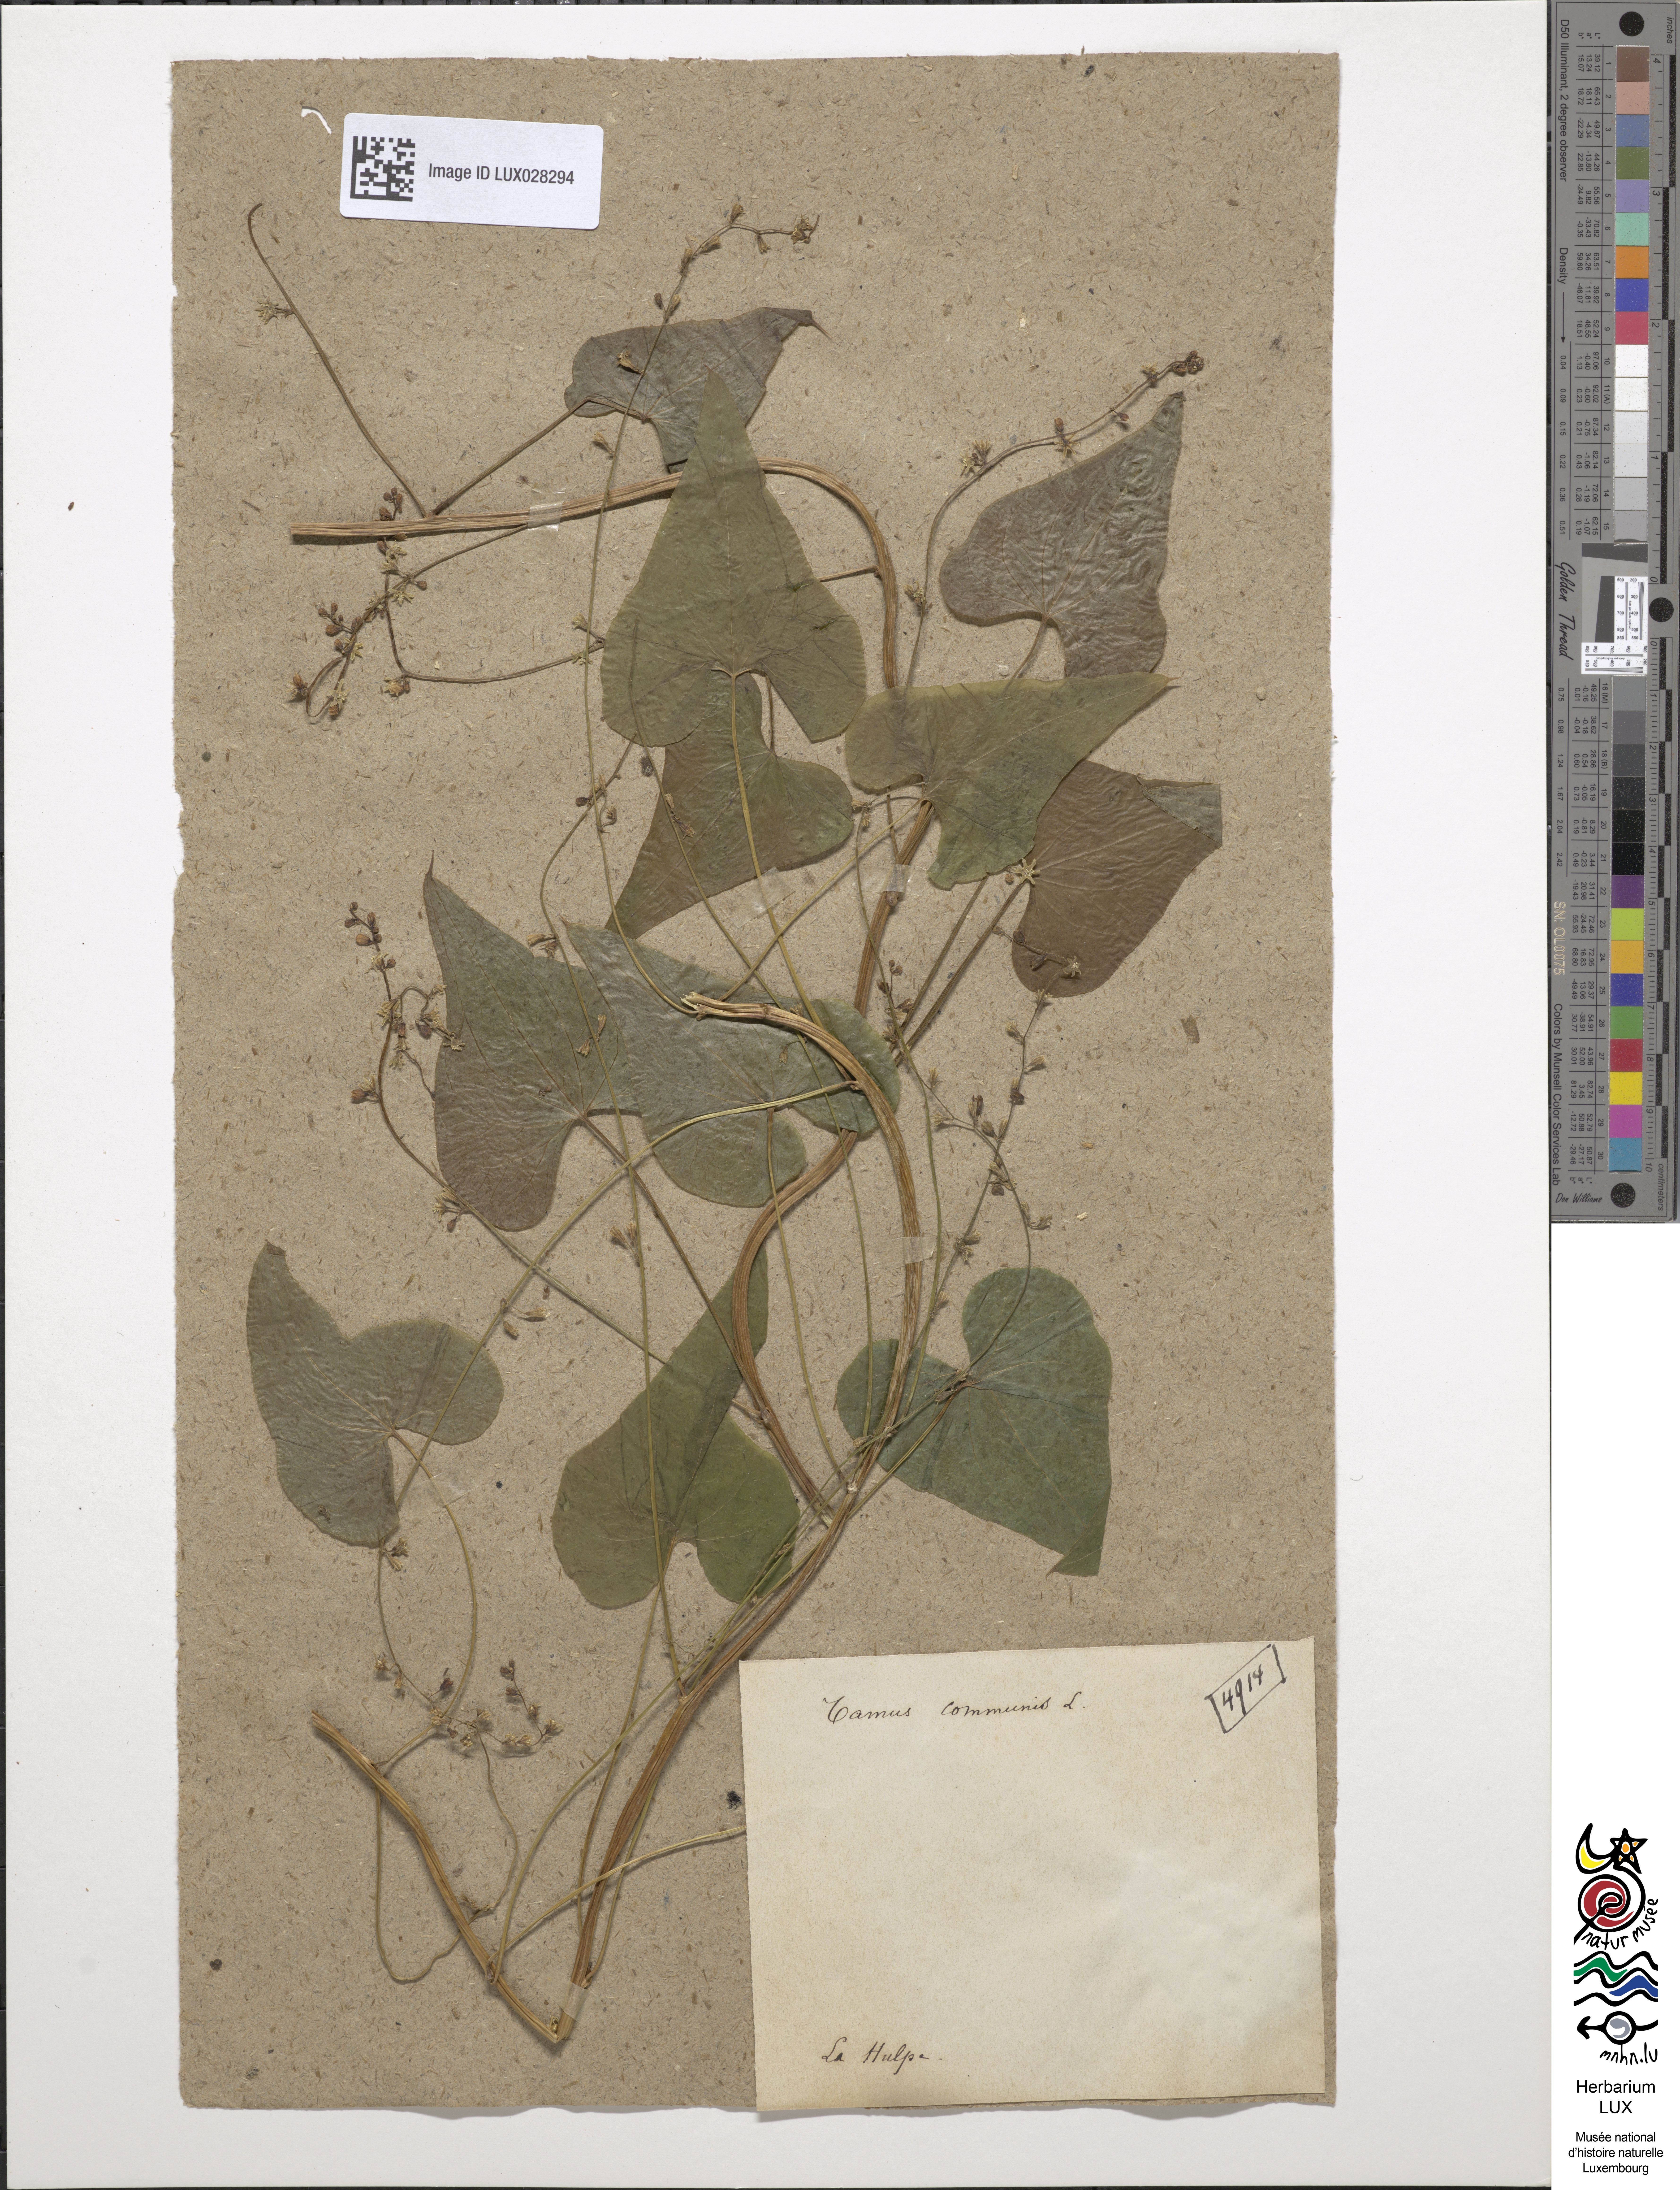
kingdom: Plantae
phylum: Tracheophyta
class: Liliopsida
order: Dioscoreales
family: Dioscoreaceae
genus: Dioscorea
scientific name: Dioscorea communis
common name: Black-bindweed
